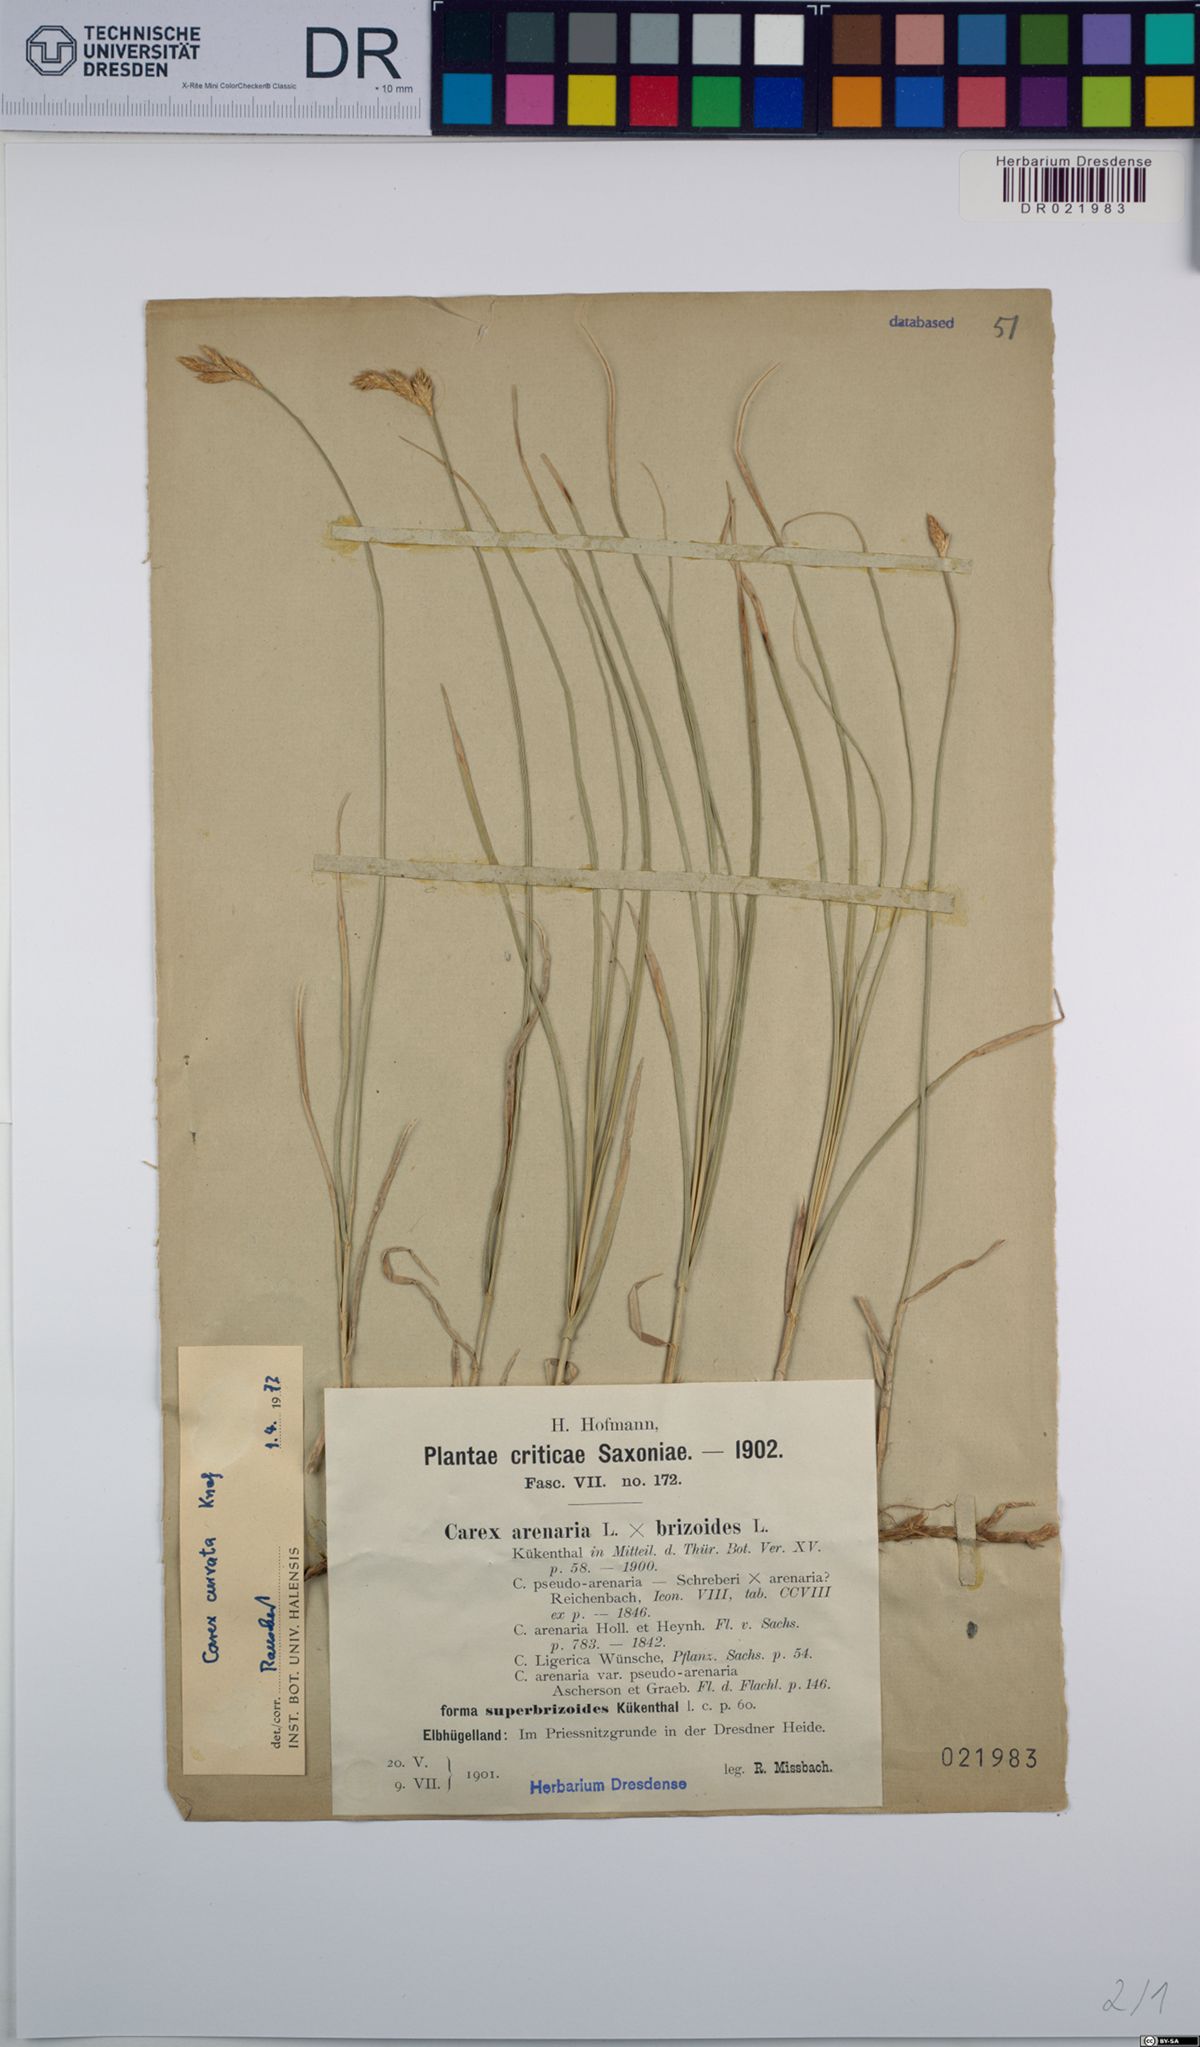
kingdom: Plantae
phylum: Tracheophyta
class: Liliopsida
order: Poales
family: Cyperaceae
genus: Carex
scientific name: Carex curvata
